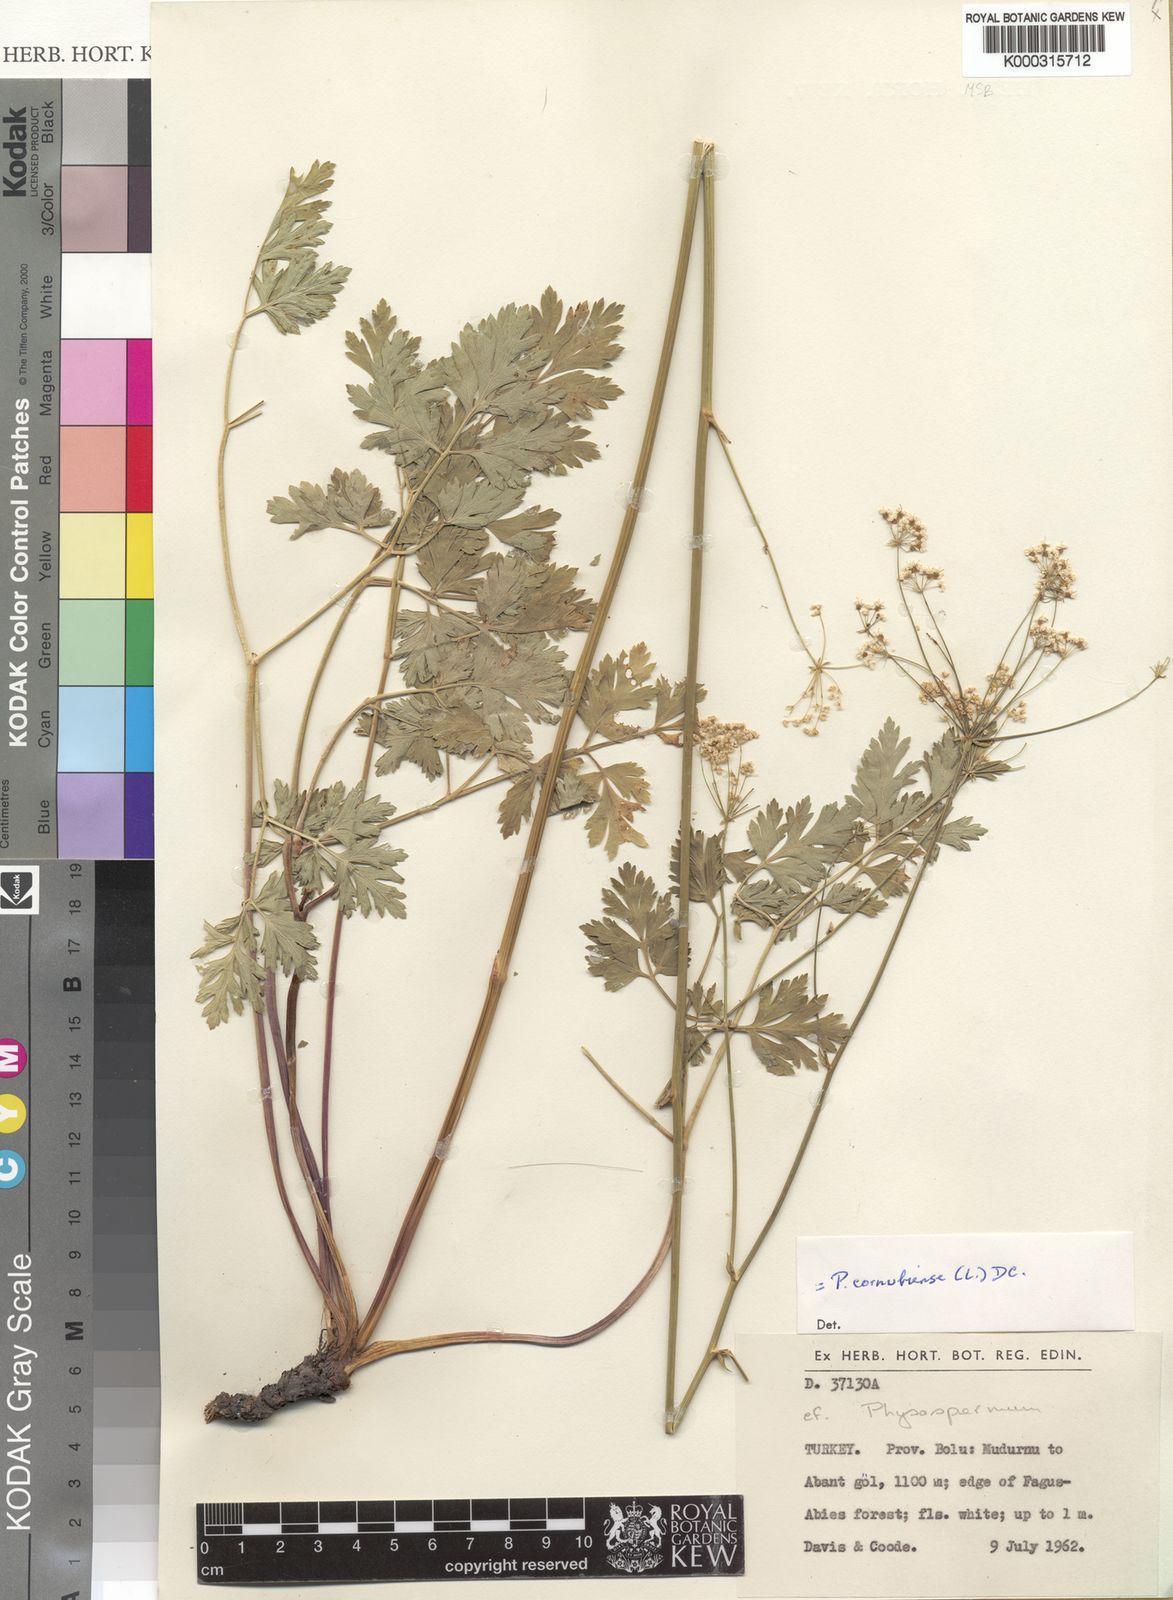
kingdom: Plantae
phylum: Tracheophyta
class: Magnoliopsida
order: Apiales
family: Apiaceae
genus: Physospermum
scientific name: Physospermum cornubiense
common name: Bladderseed
